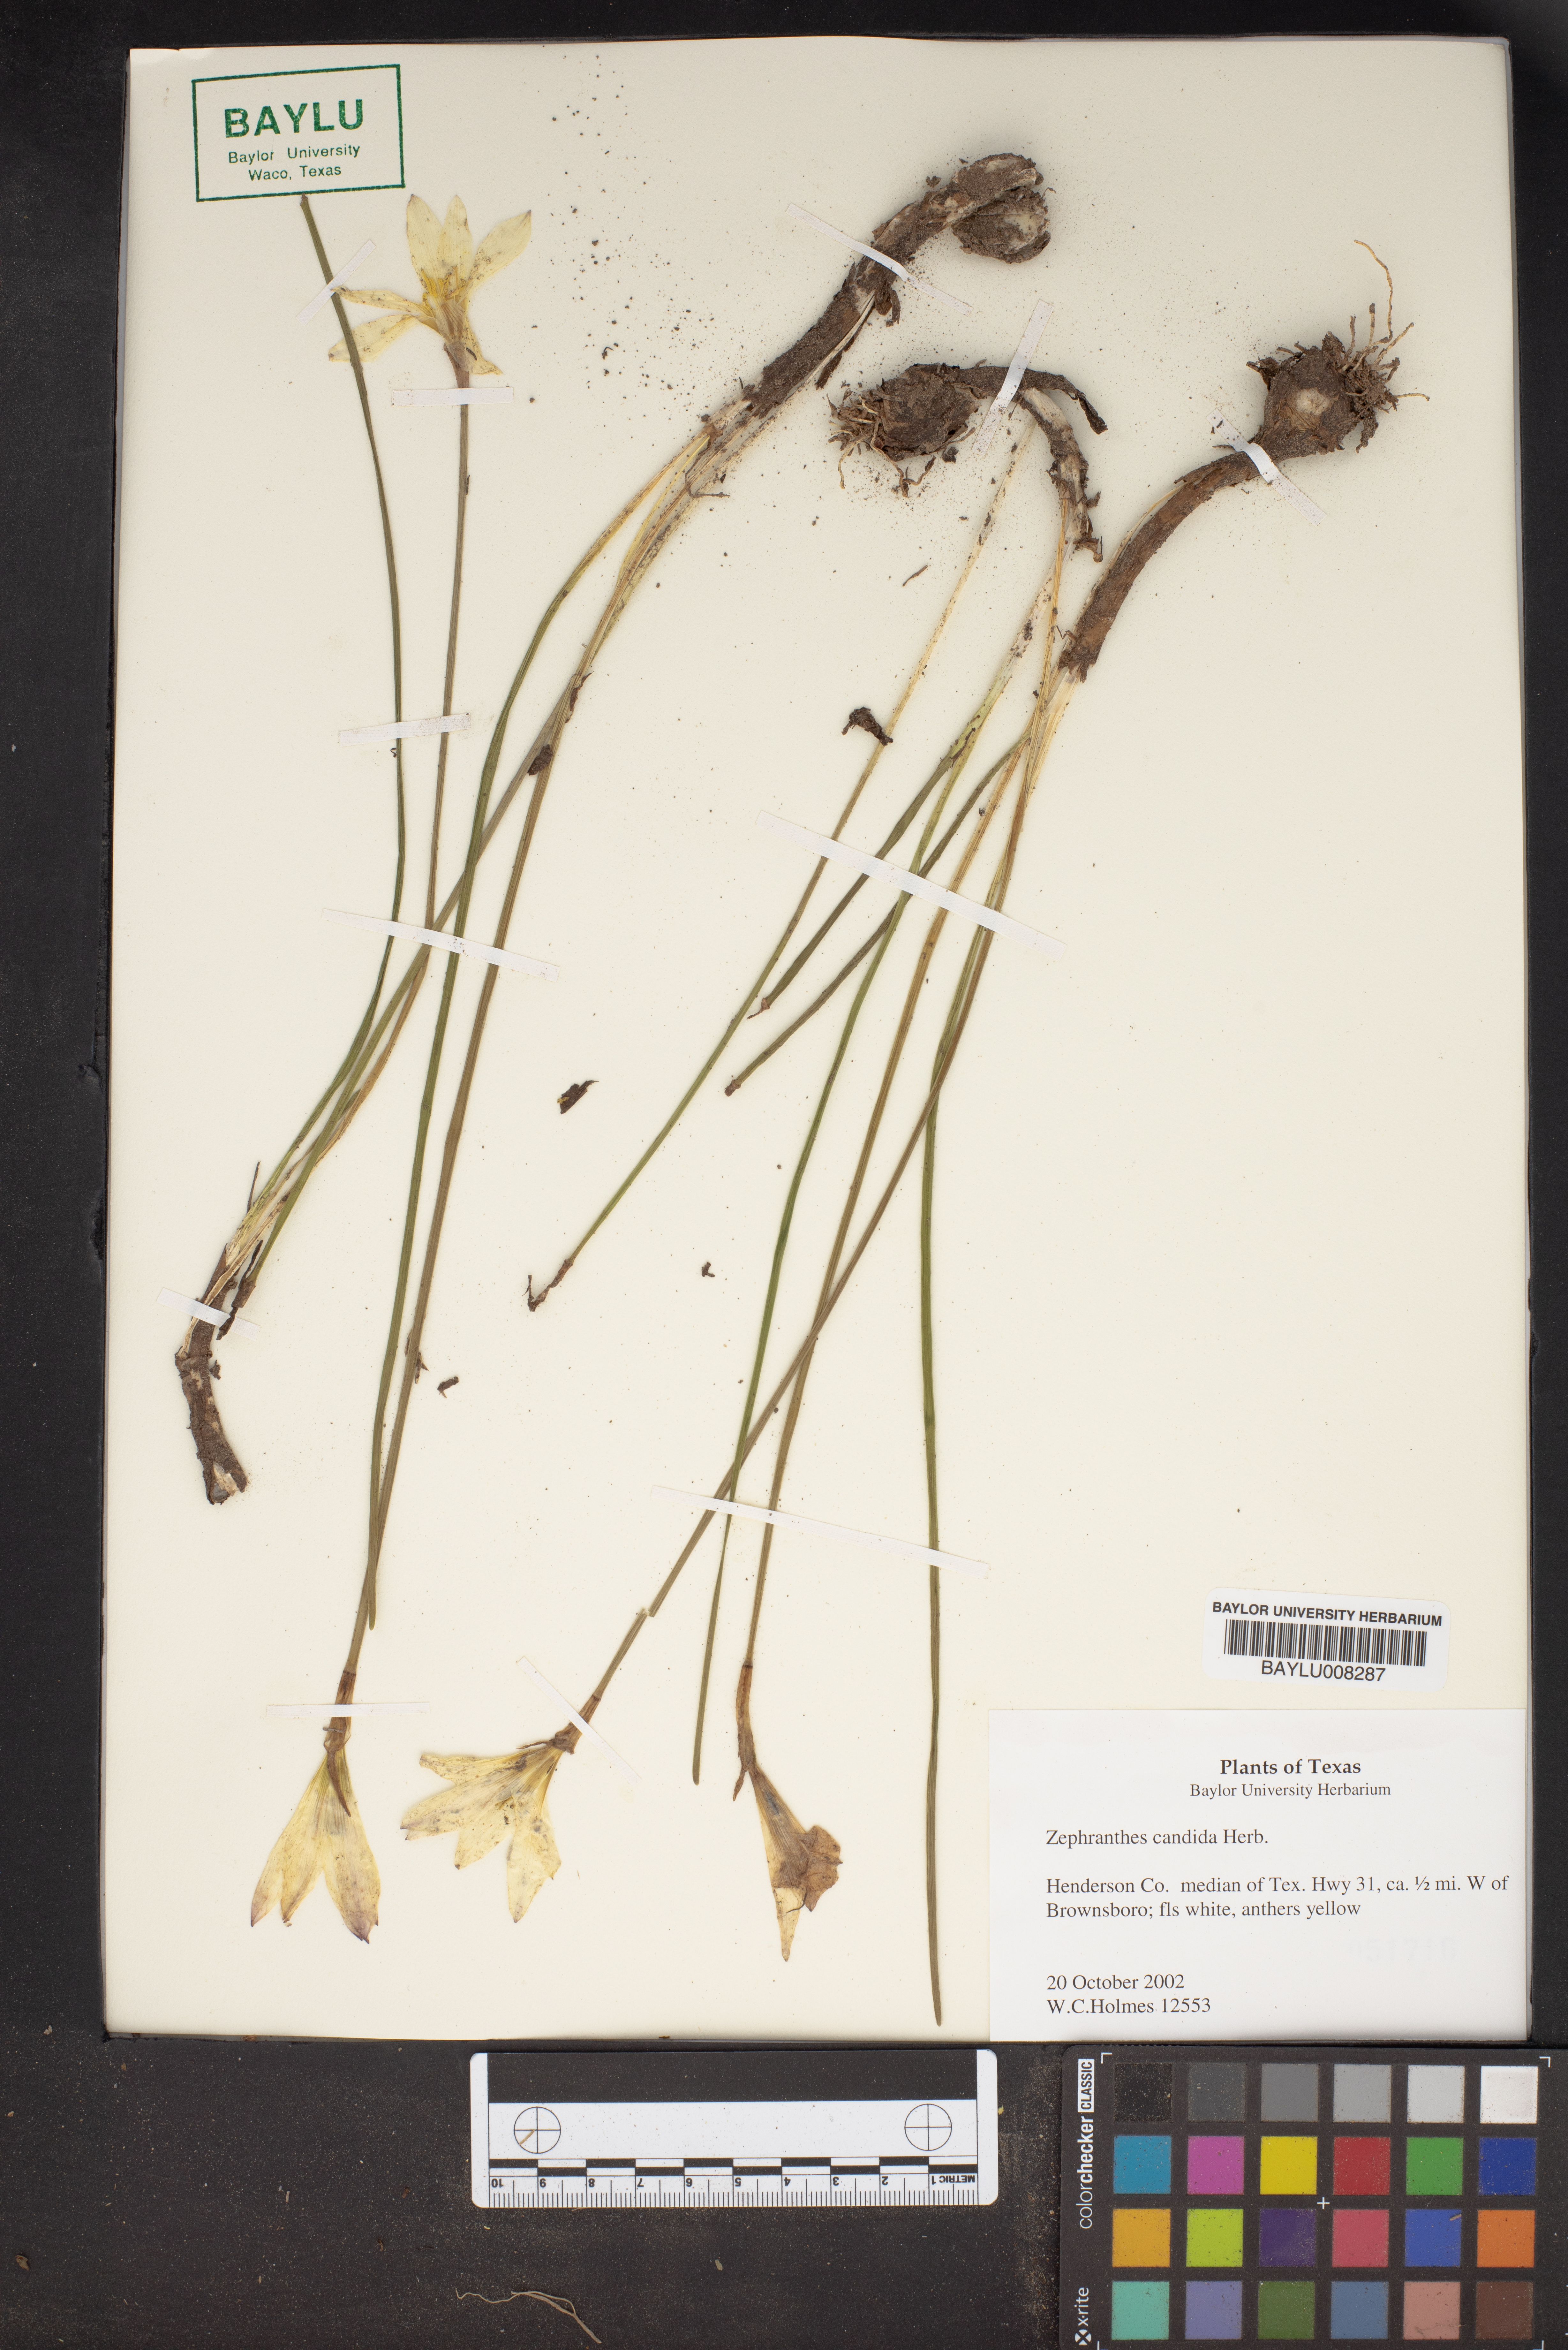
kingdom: Plantae
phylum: Tracheophyta
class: Liliopsida
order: Asparagales
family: Amaryllidaceae
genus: Zephyranthes
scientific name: Zephyranthes candida
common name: Autumn zephyrlily
